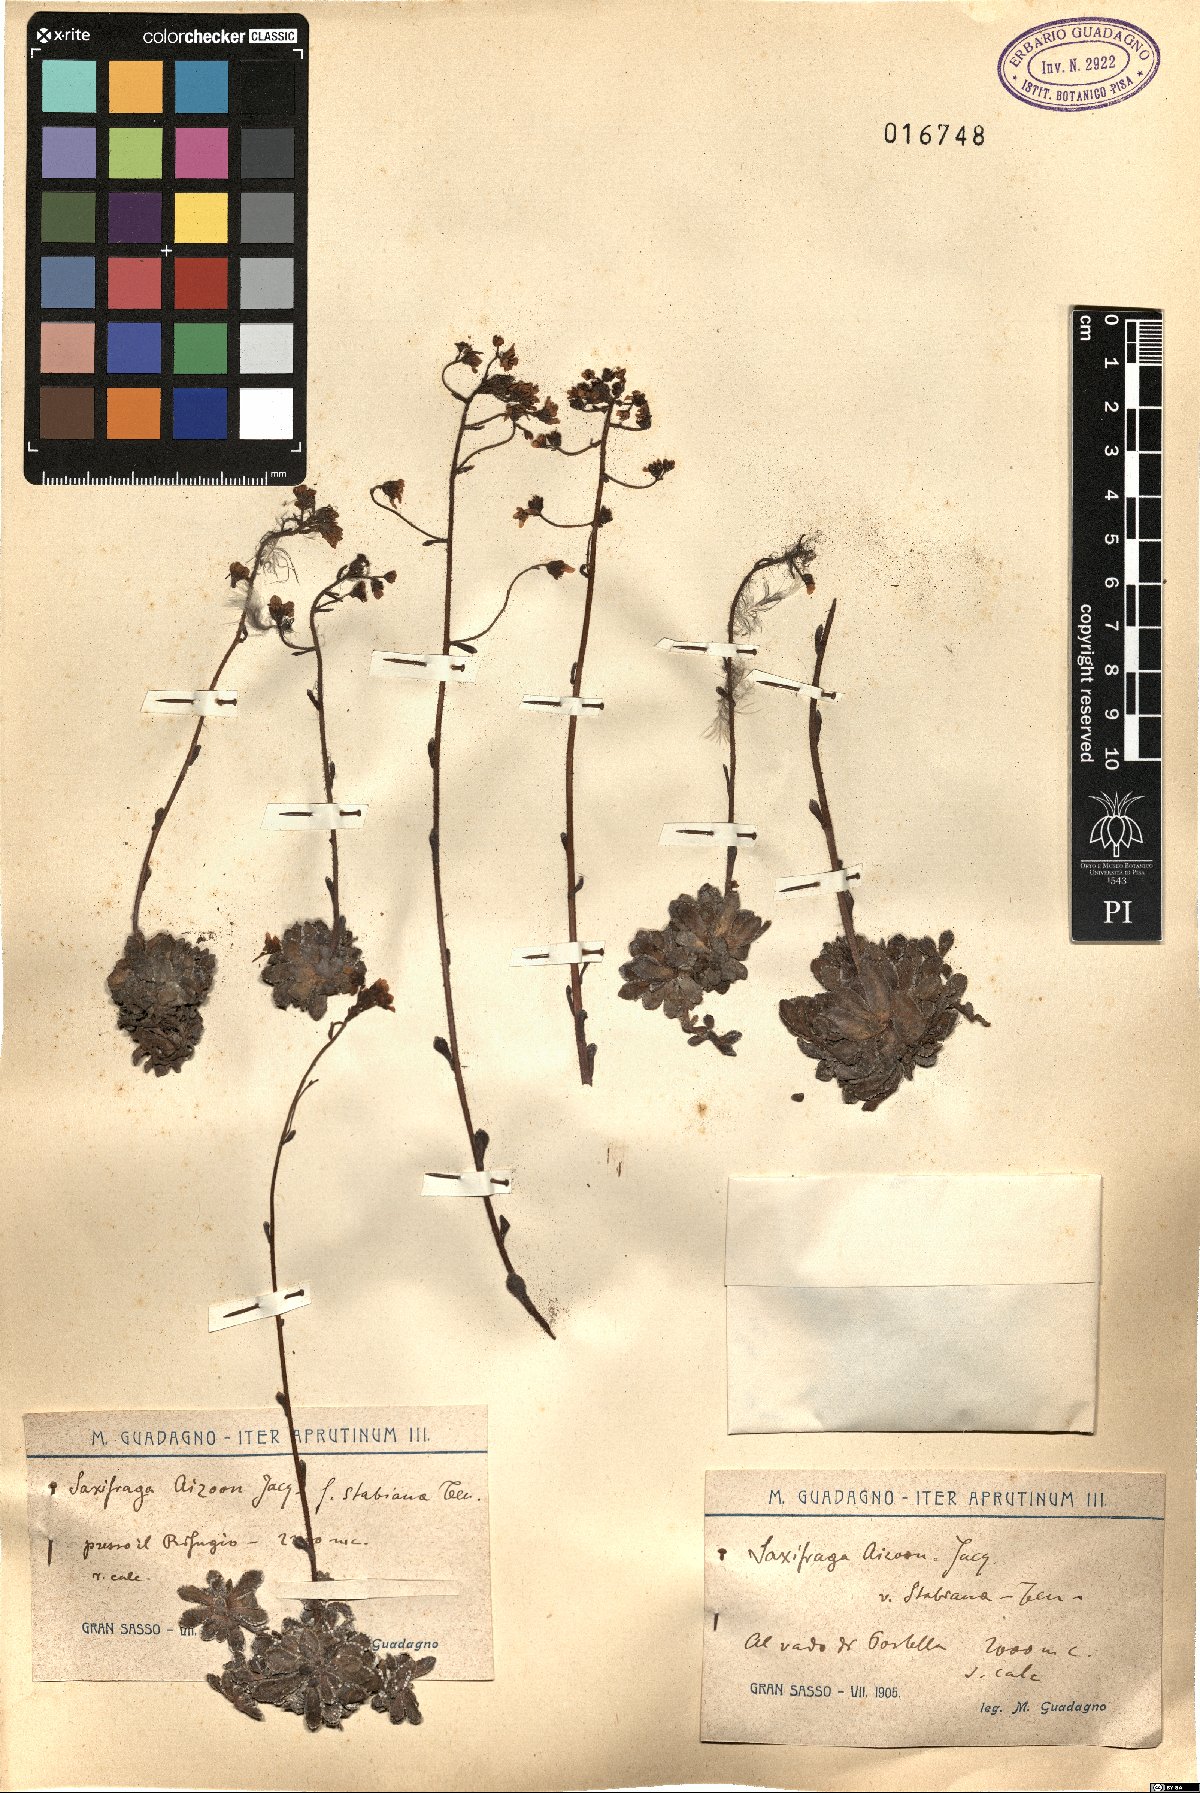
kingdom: Plantae
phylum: Tracheophyta
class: Magnoliopsida
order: Saxifragales
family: Saxifragaceae
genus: Saxifraga
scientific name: Saxifraga paniculata
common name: Livelong saxifrage
